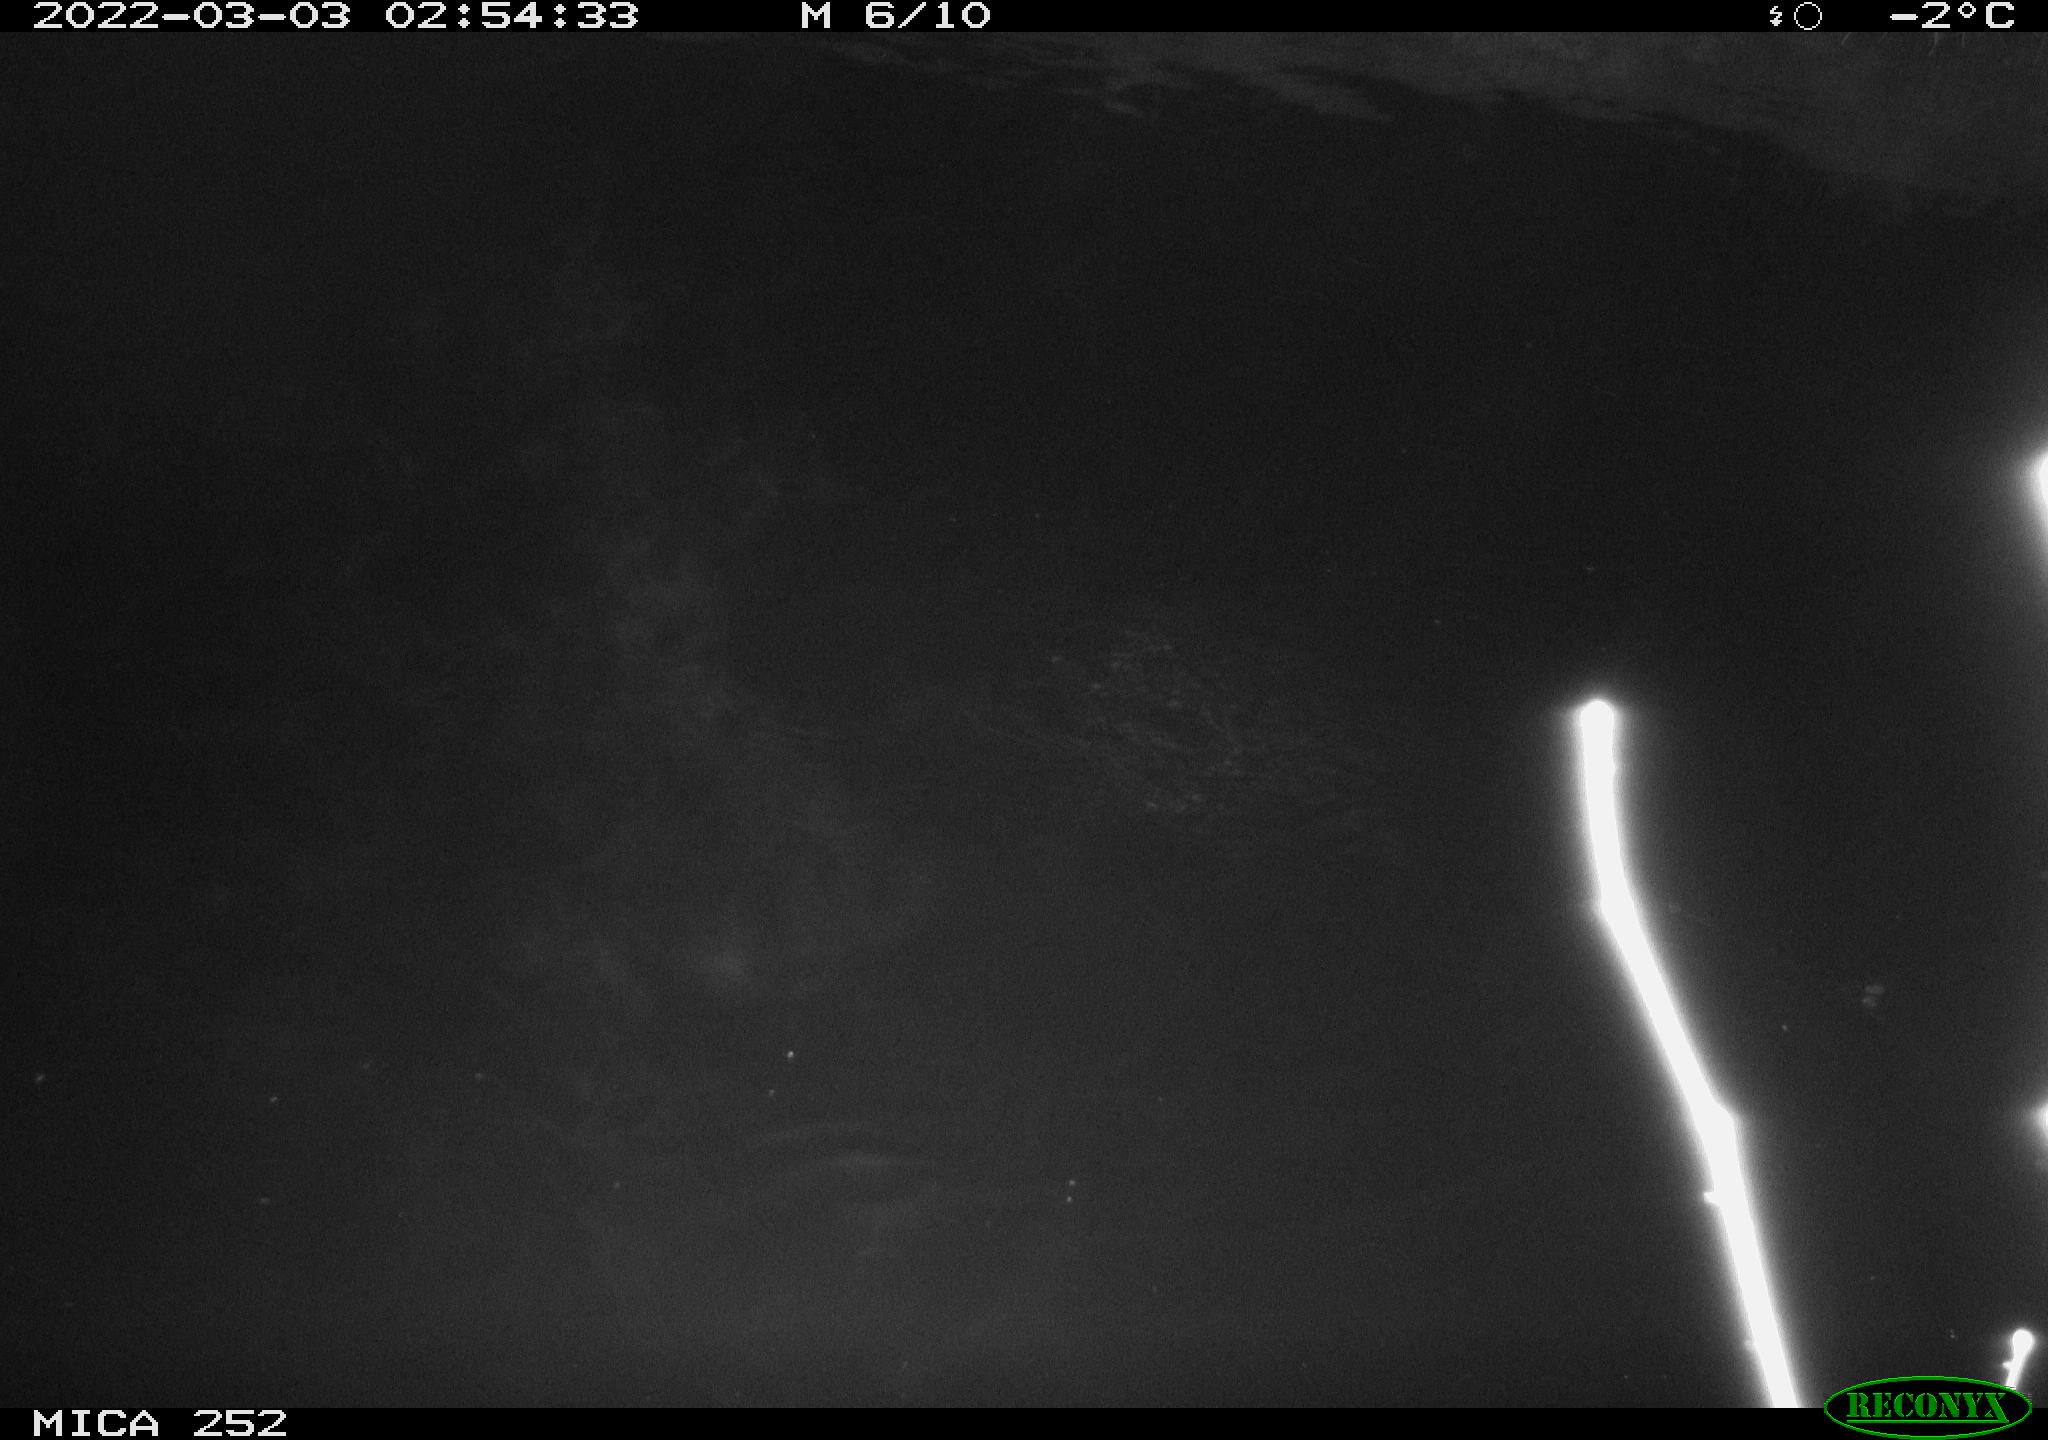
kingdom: Animalia
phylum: Chordata
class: Mammalia
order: Rodentia
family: Castoridae
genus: Castor
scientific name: Castor fiber
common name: Eurasian beaver
